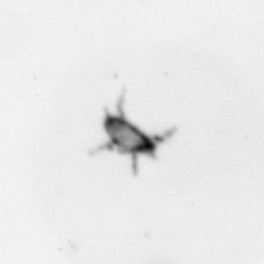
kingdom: Animalia
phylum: Arthropoda
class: Arachnida
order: Trombidiformes
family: Arrenuridae
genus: Hydracarina
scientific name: Hydracarina
